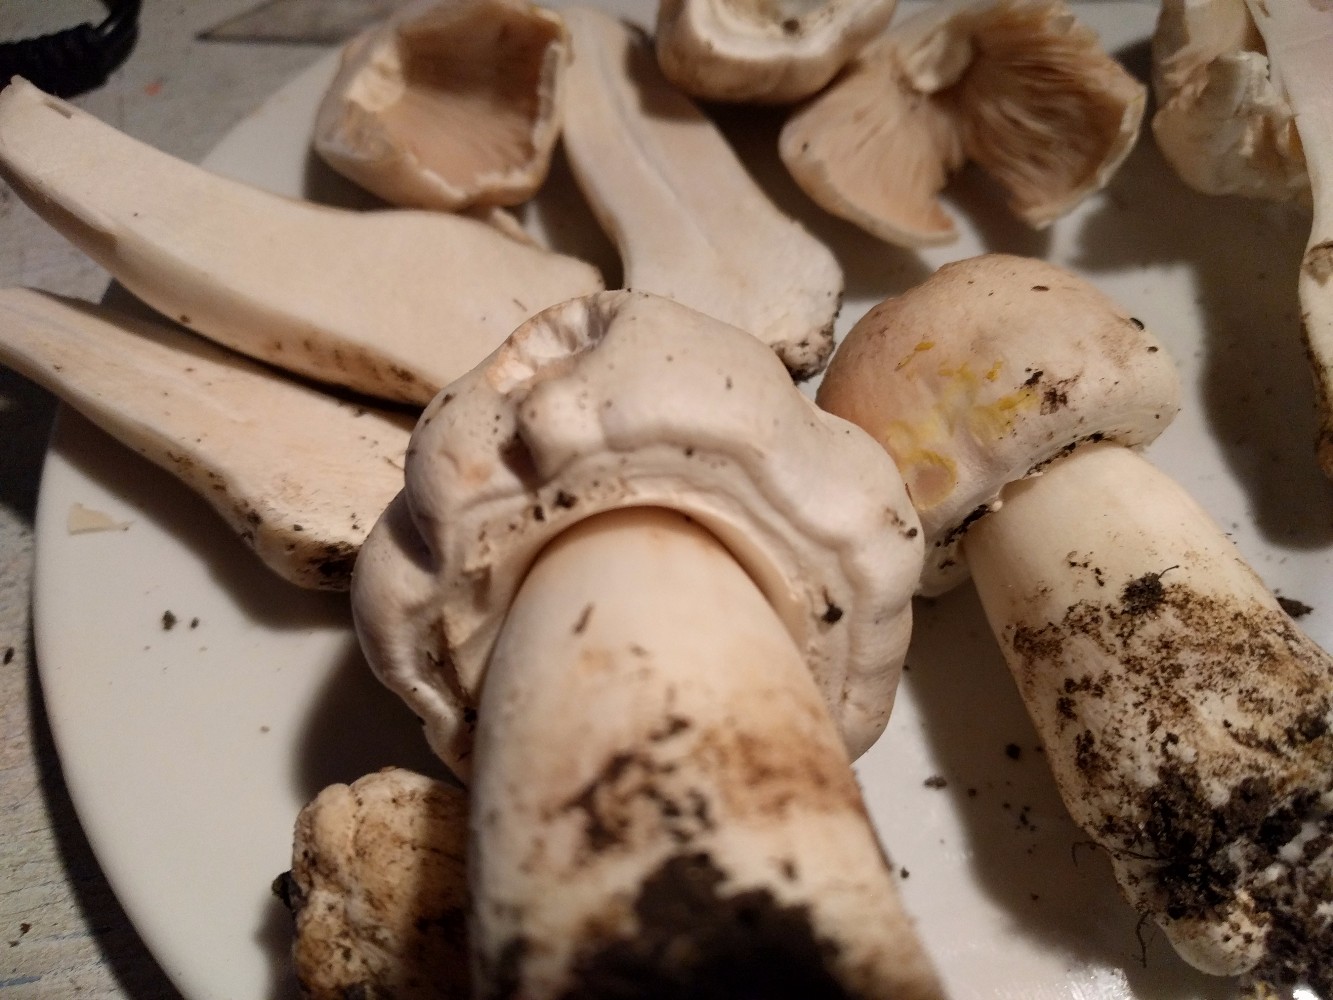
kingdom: Fungi
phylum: Basidiomycota
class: Agaricomycetes
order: Agaricales
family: Agaricaceae
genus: Agaricus
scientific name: Agaricus arvensis
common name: ager-champignon
